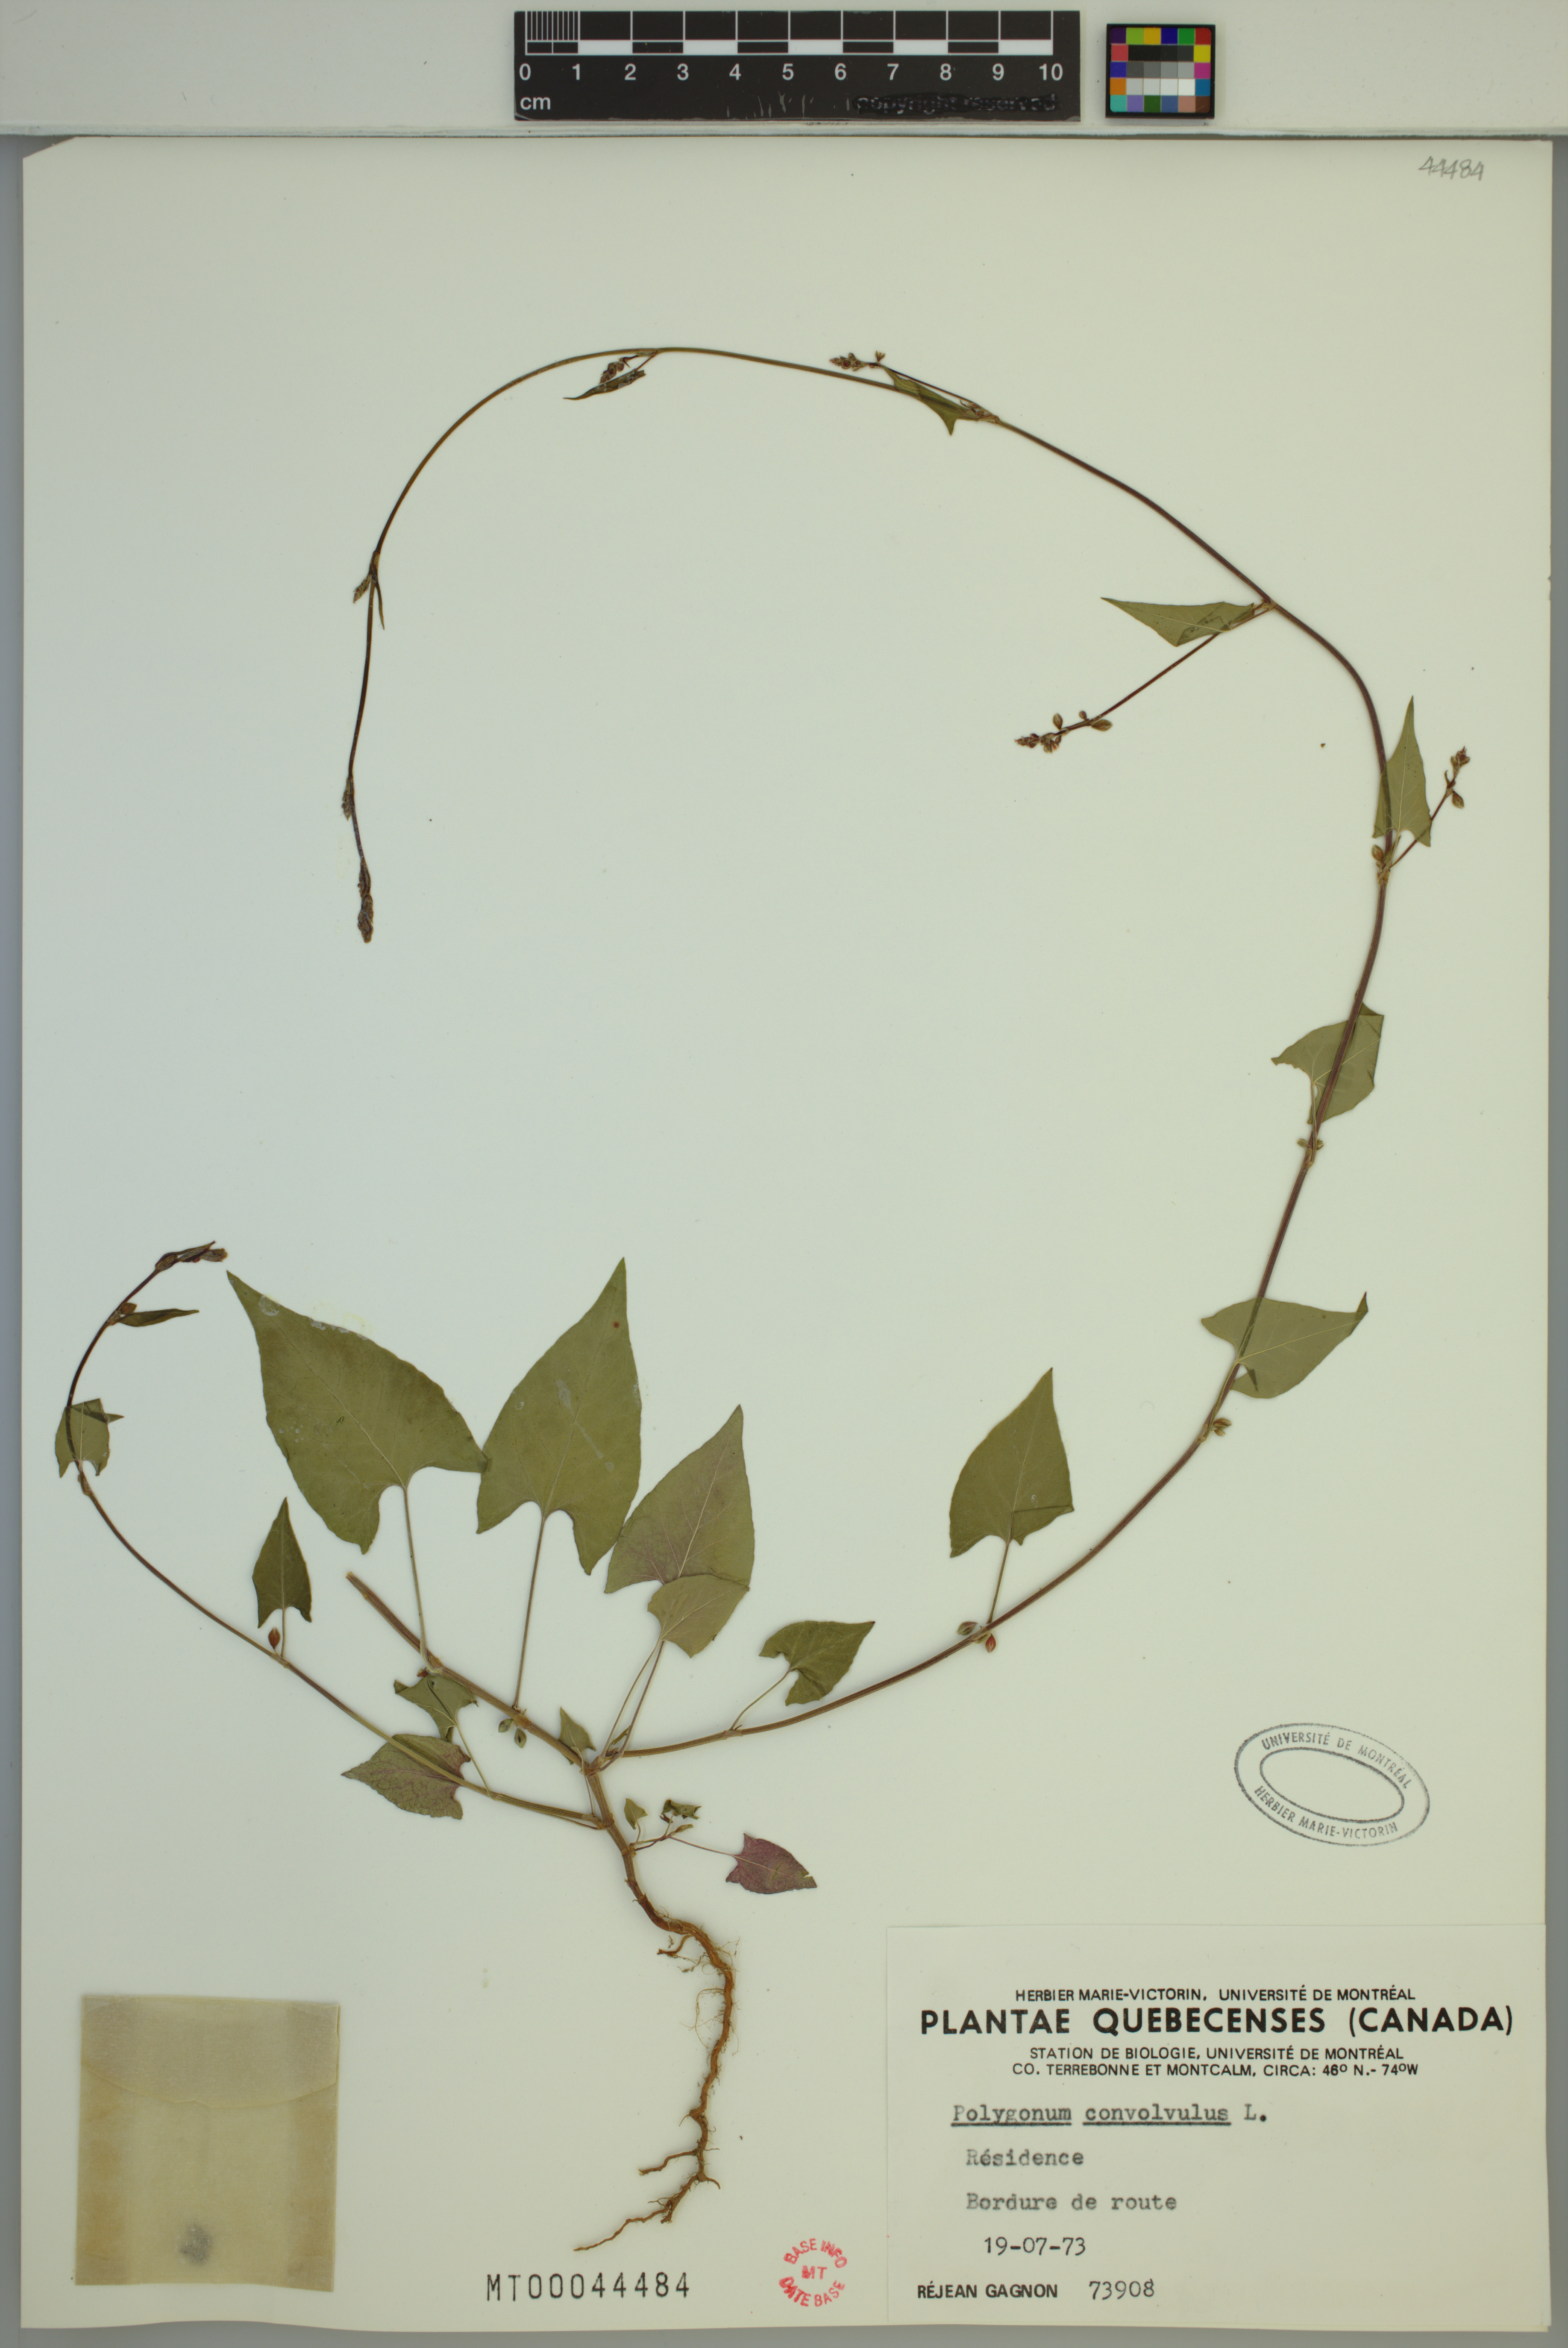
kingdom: Plantae
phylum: Tracheophyta
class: Magnoliopsida
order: Caryophyllales
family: Polygonaceae
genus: Fallopia
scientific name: Fallopia convolvulus
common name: Black bindweed
